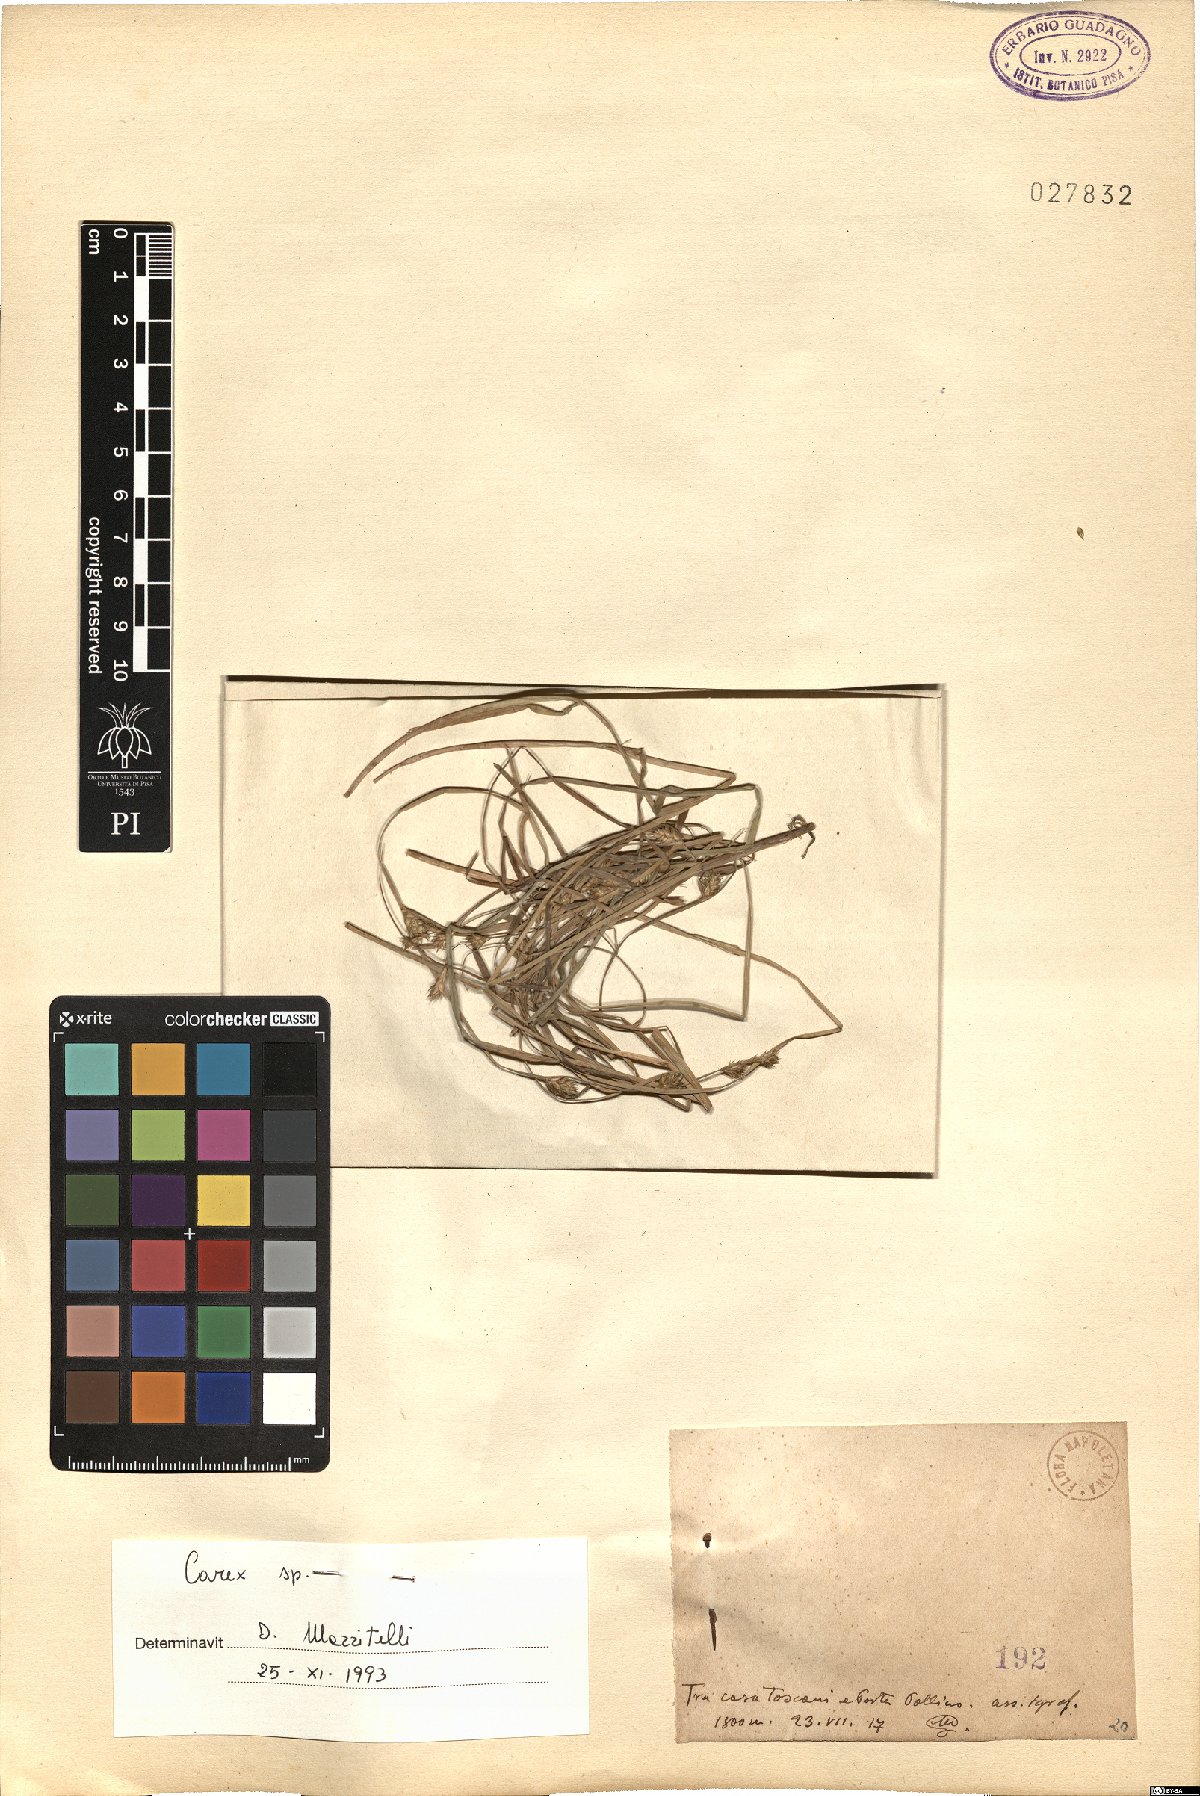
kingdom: Plantae
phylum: Tracheophyta
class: Liliopsida
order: Poales
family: Cyperaceae
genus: Carex
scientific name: Carex
